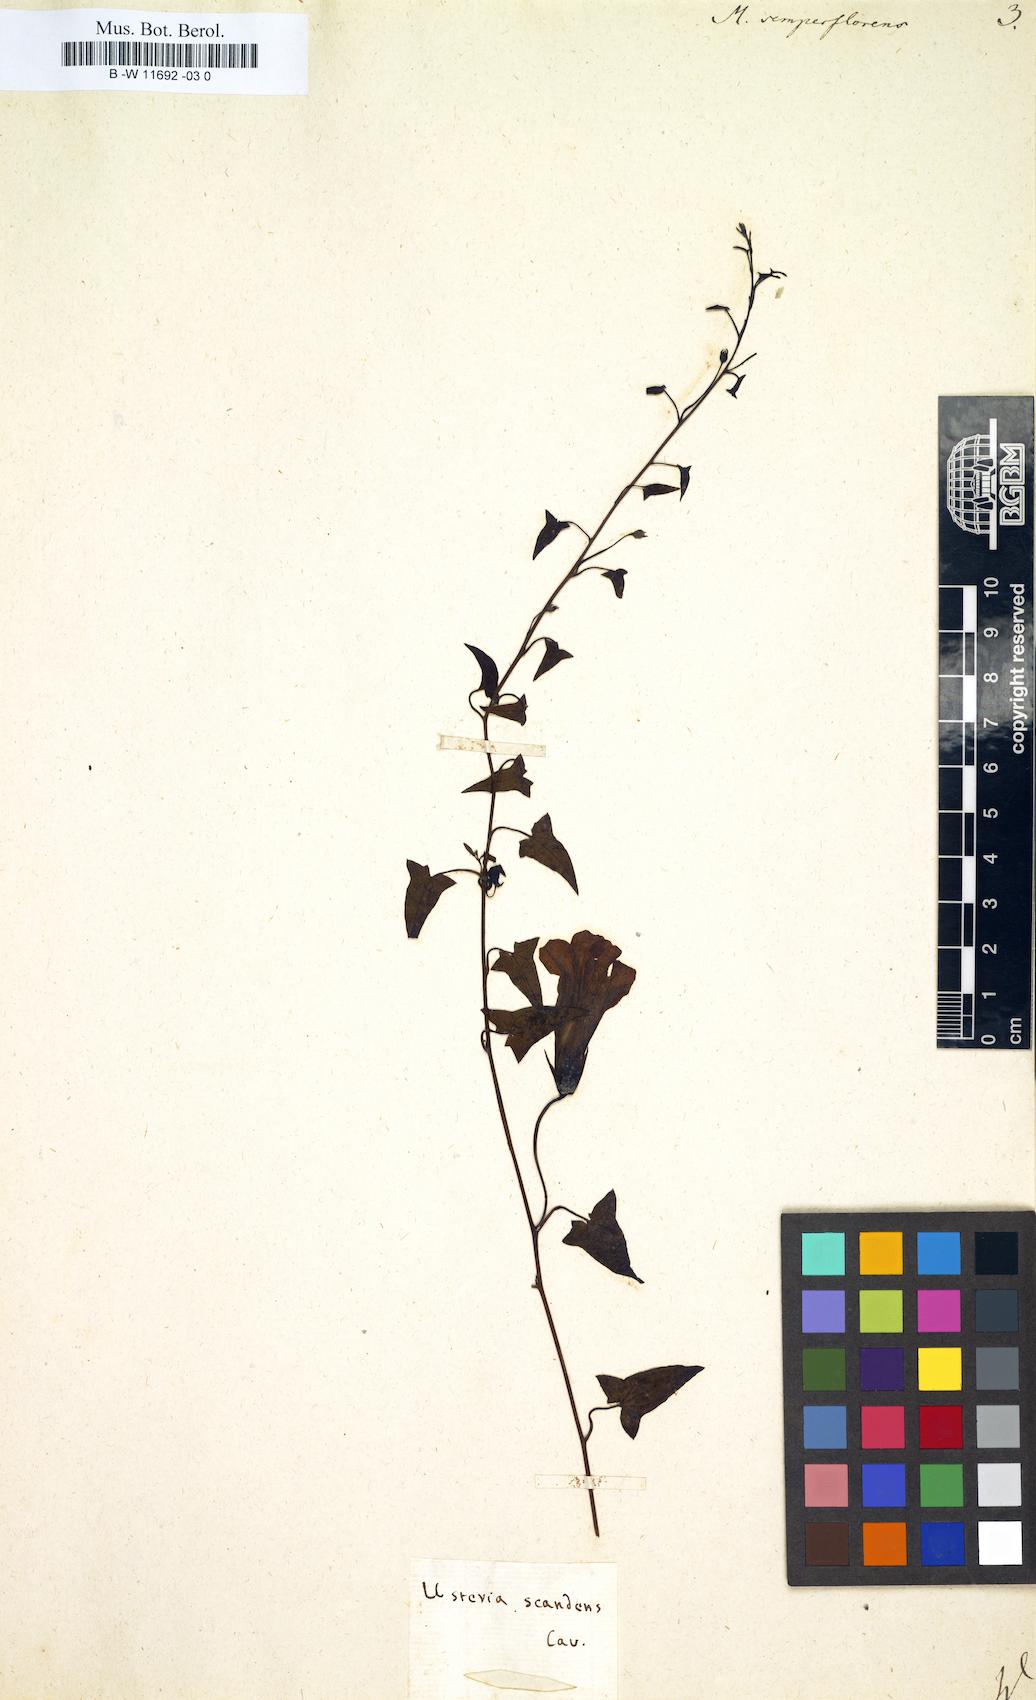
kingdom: Plantae
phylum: Tracheophyta
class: Magnoliopsida
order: Lamiales
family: Scrophulariaceae
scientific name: Scrophulariaceae
